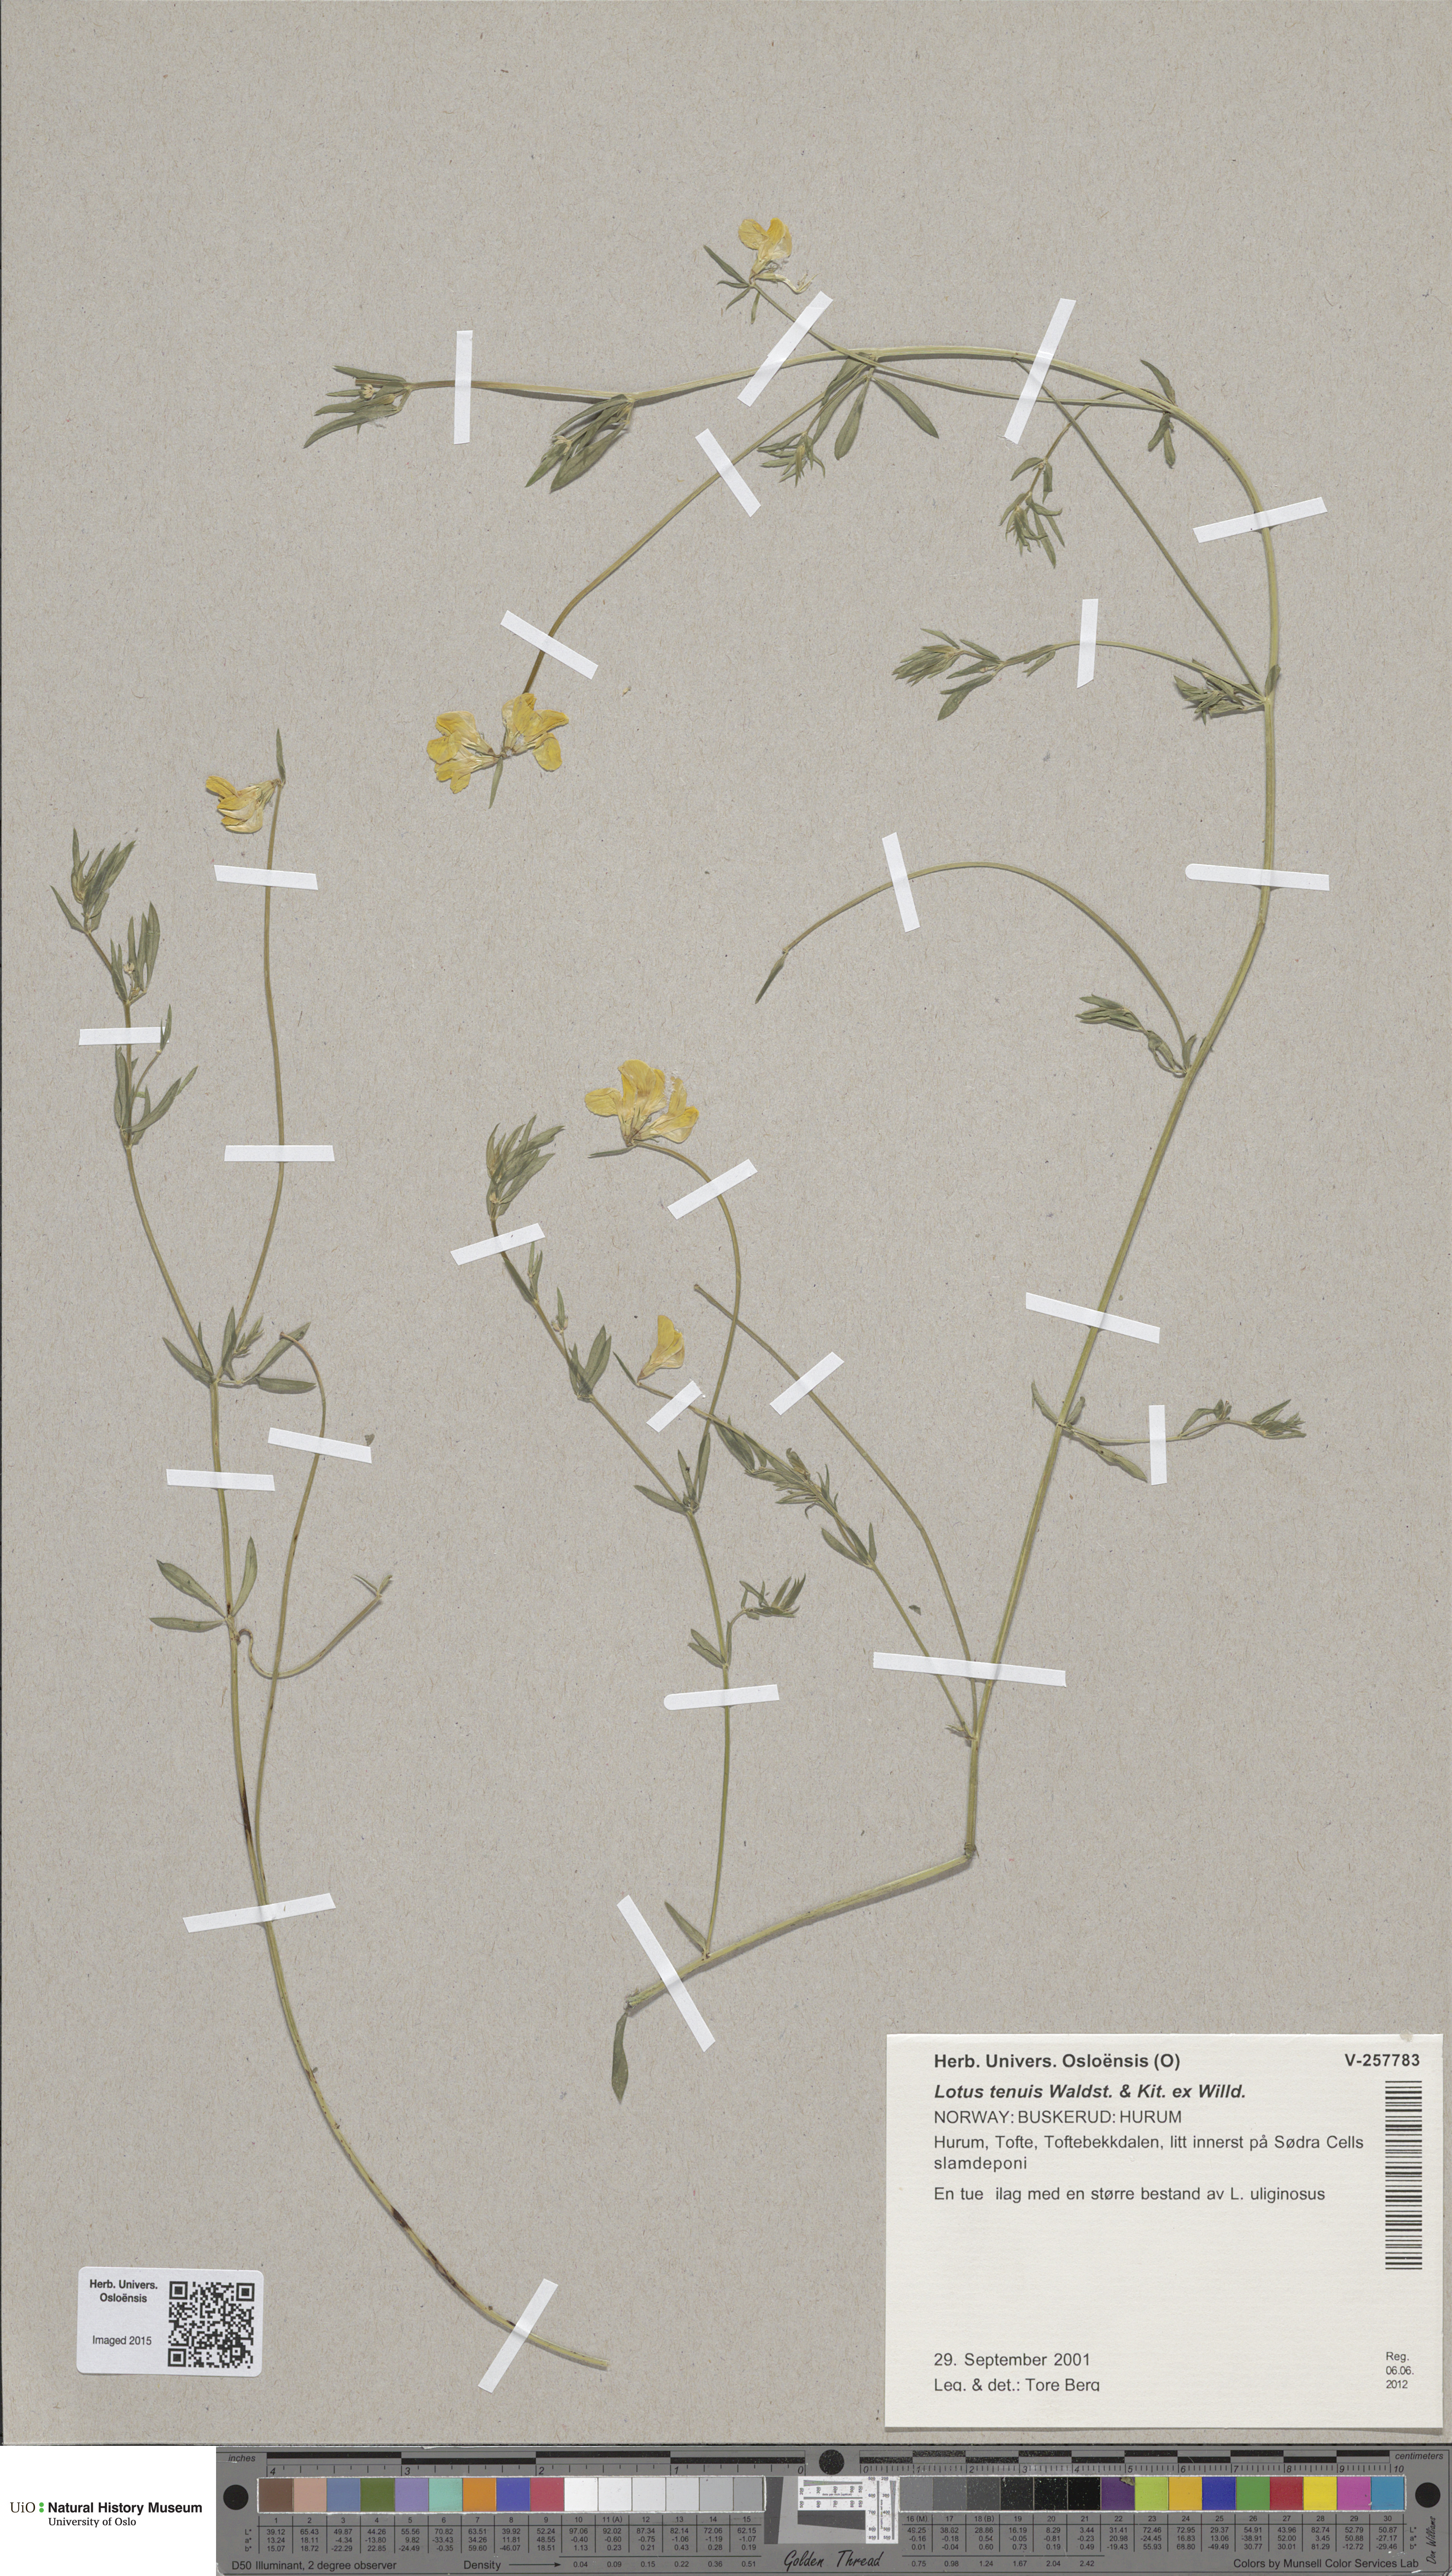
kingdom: Plantae
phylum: Tracheophyta
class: Magnoliopsida
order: Fabales
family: Fabaceae
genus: Lotus
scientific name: Lotus tenuis
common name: Narrow-leaved bird's-foot-trefoil
